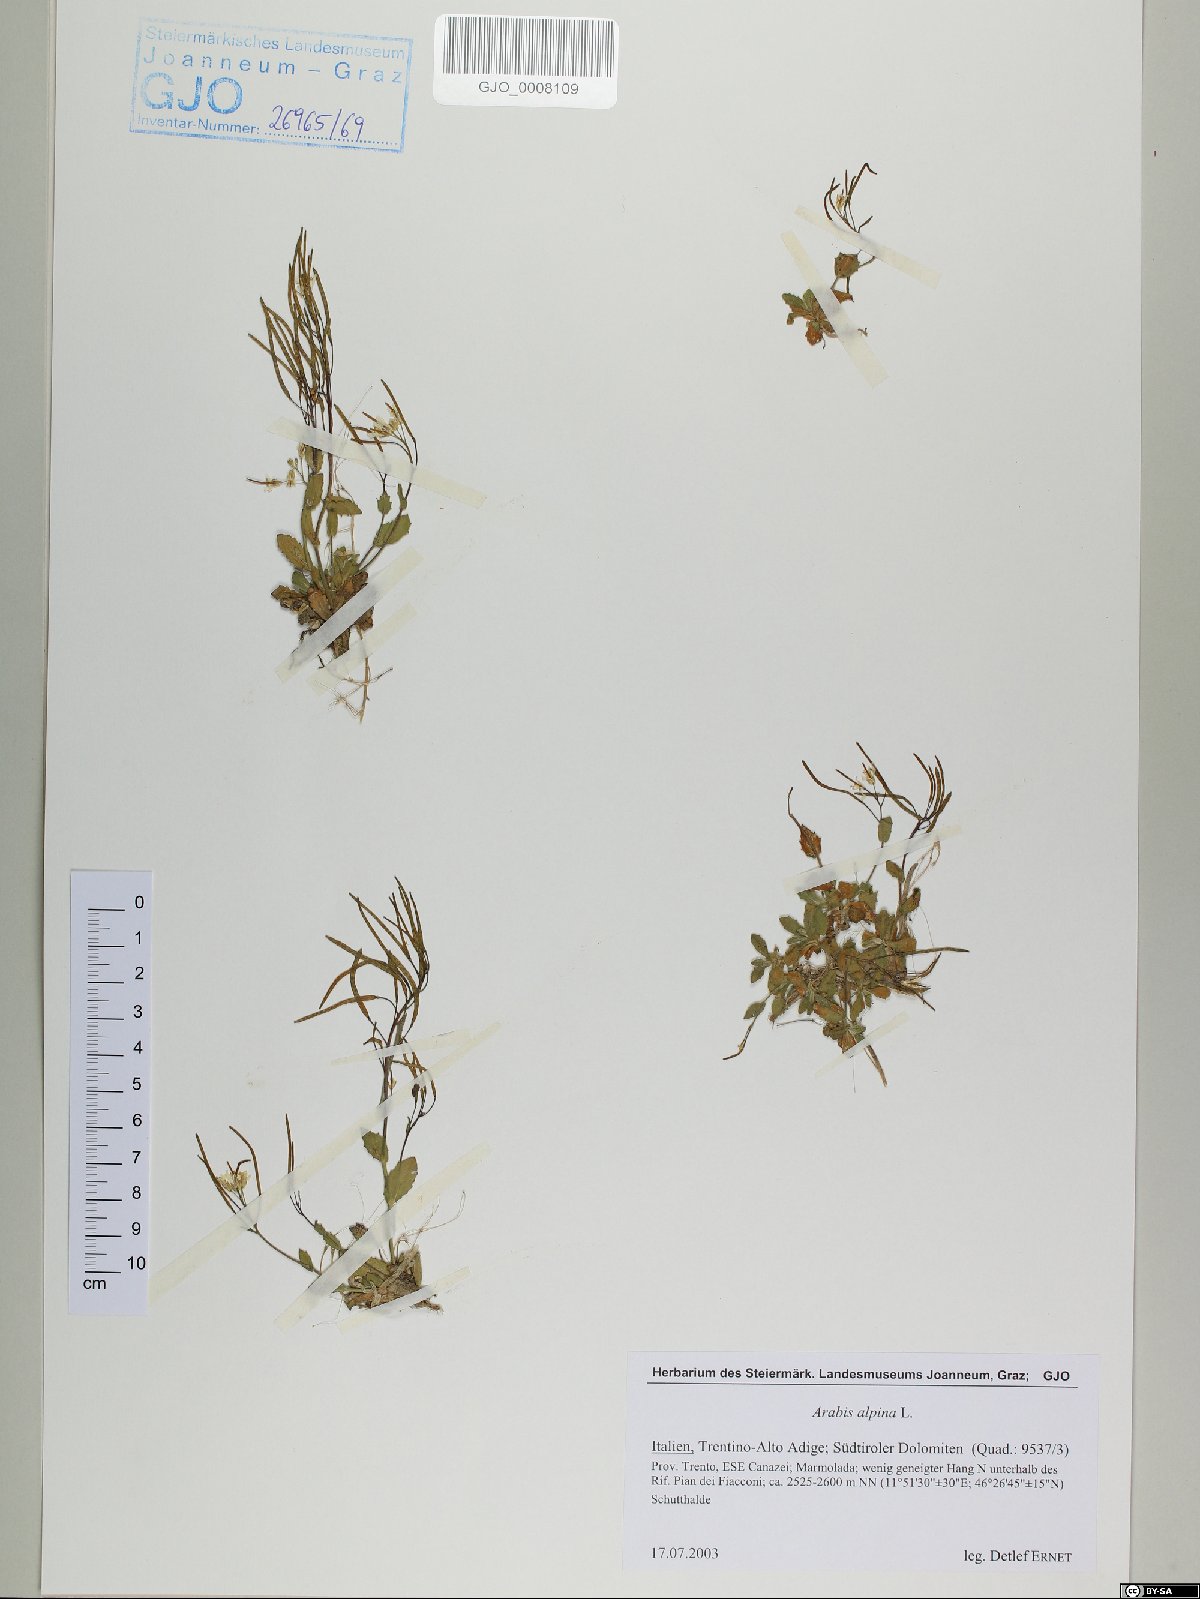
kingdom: Plantae
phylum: Tracheophyta
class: Magnoliopsida
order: Brassicales
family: Brassicaceae
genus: Arabis
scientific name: Arabis alpina
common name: Alpine rock-cress
